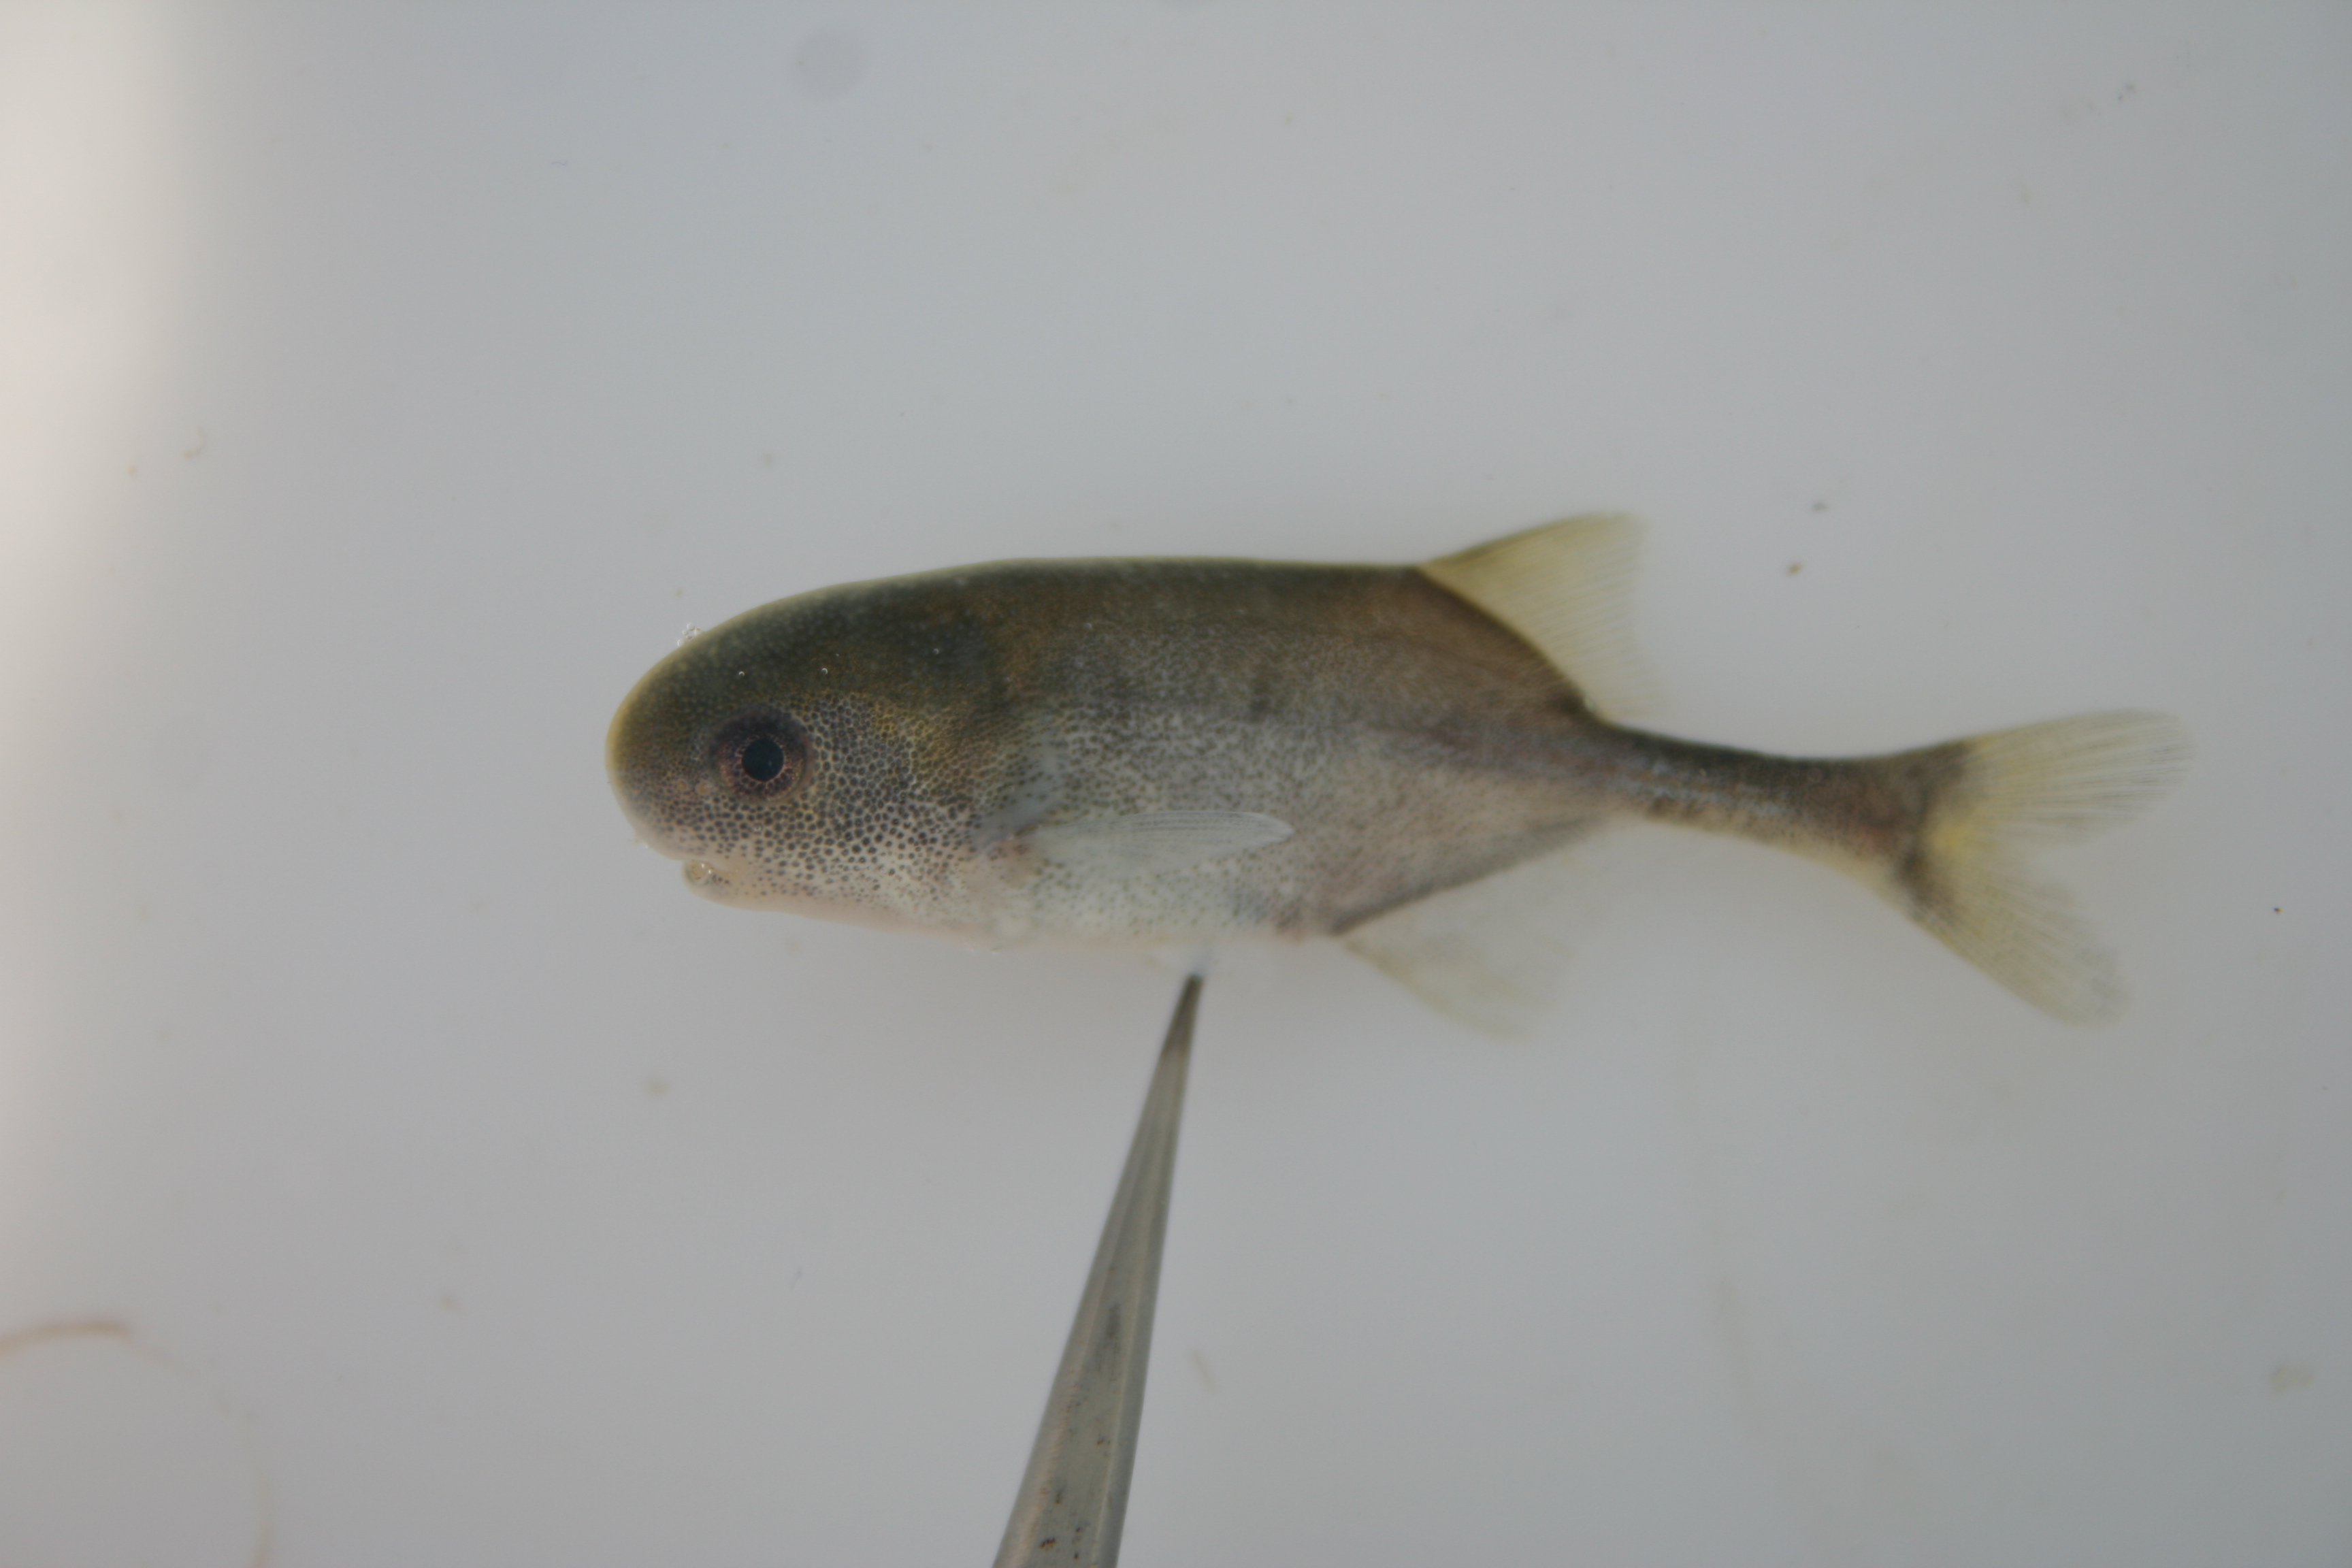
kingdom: Animalia
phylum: Chordata
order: Osteoglossiformes
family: Mormyridae
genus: Petrocephalus
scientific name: Petrocephalus
